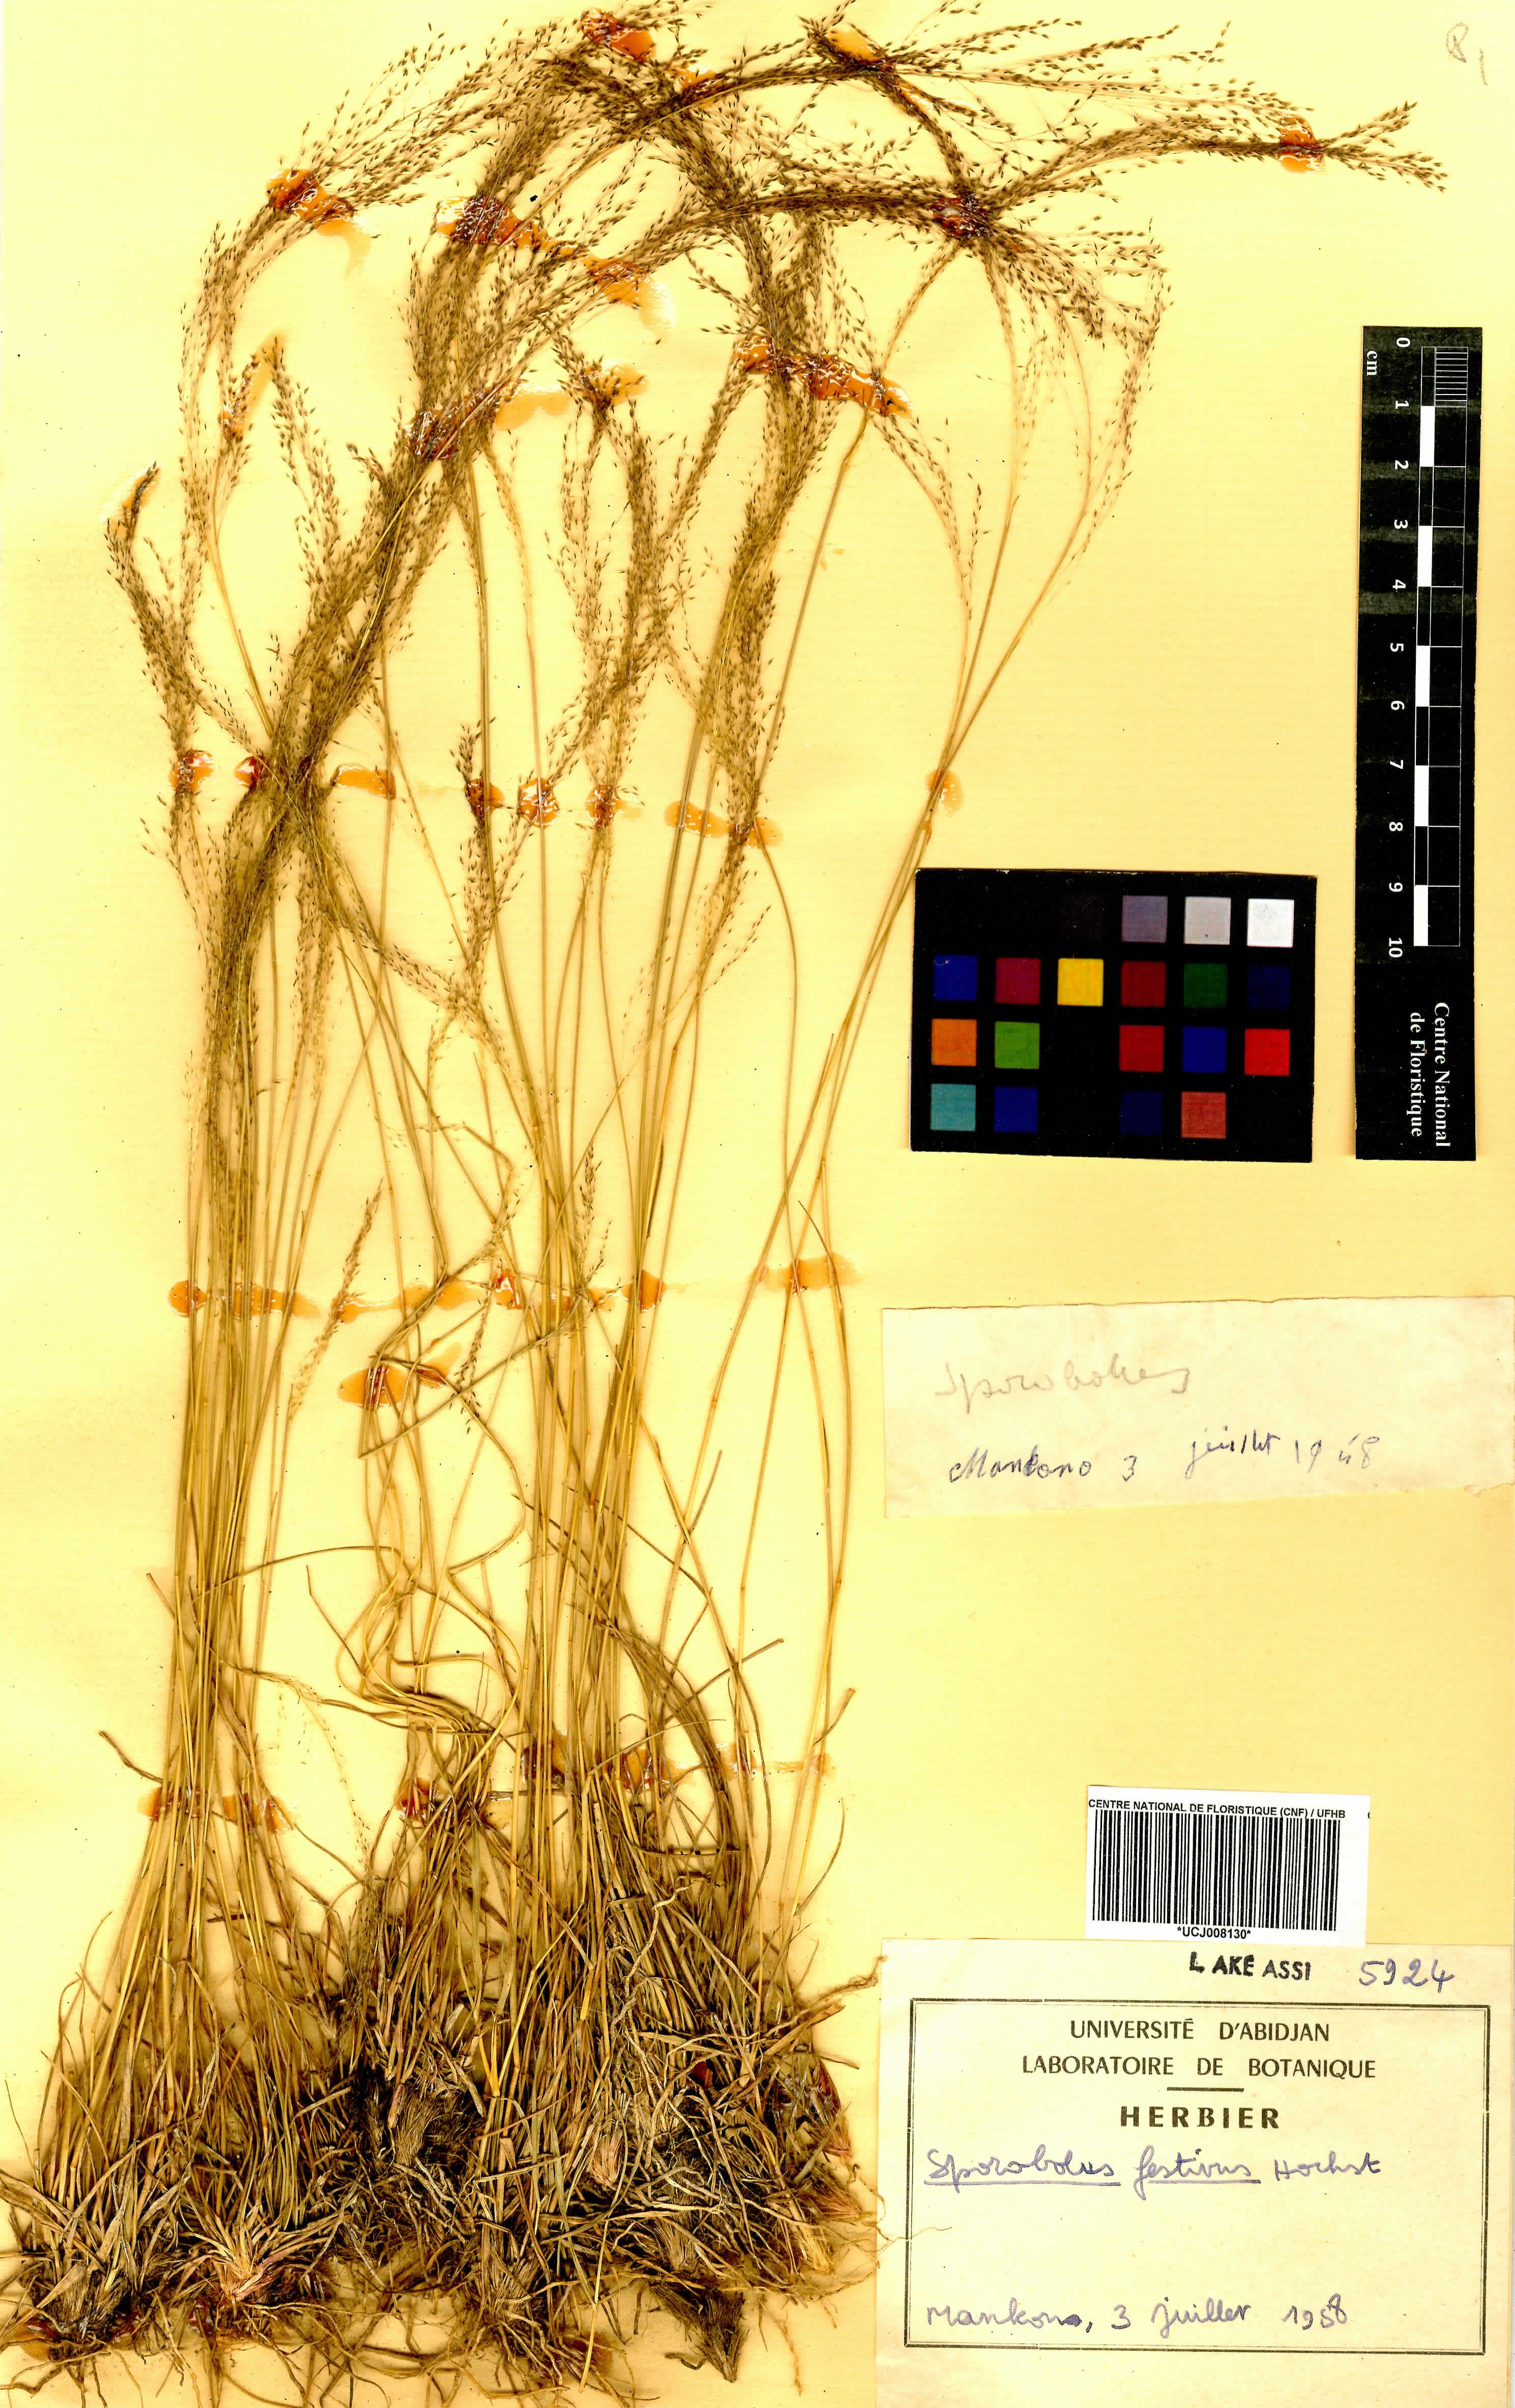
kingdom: Plantae
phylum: Tracheophyta
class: Liliopsida
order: Poales
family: Poaceae
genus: Sporobolus
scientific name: Sporobolus festivus
